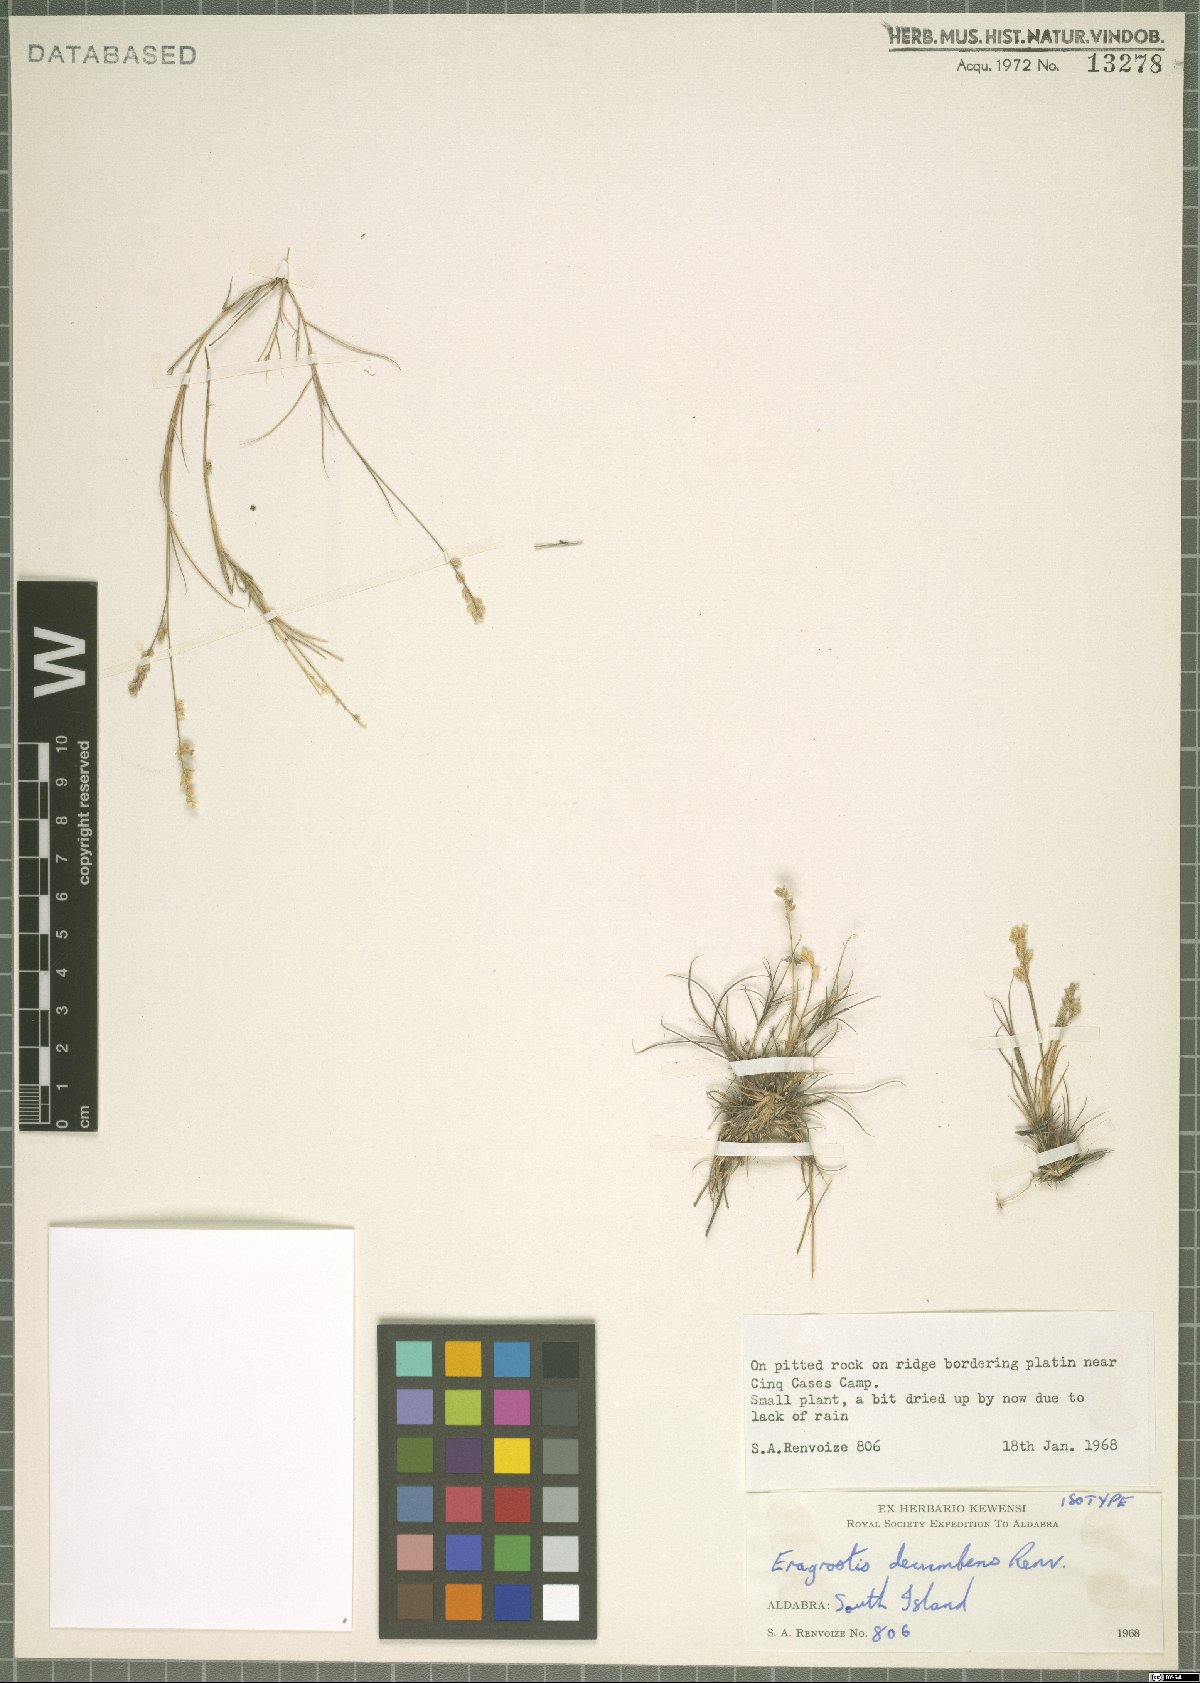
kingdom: Plantae
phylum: Tracheophyta
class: Liliopsida
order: Poales
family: Poaceae
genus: Eragrostis
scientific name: Eragrostis decumbens
